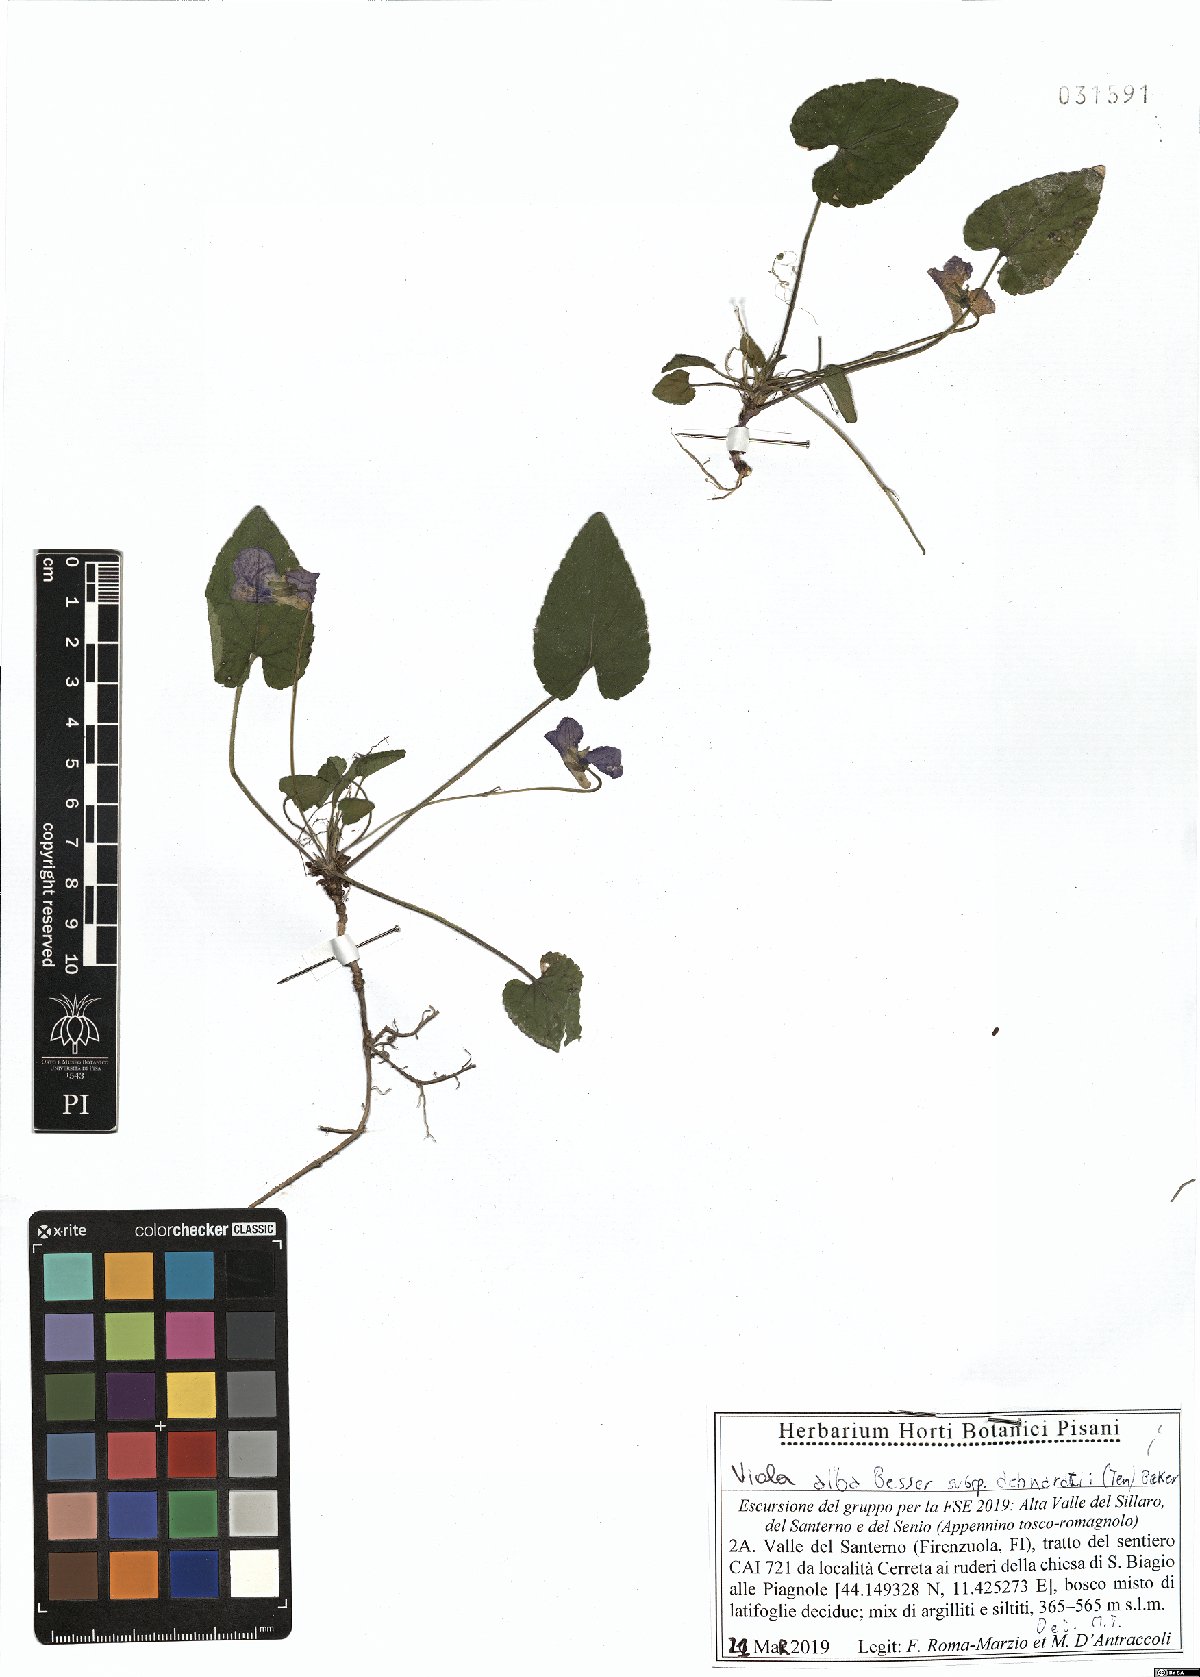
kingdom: Plantae
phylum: Tracheophyta
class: Magnoliopsida
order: Malpighiales
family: Violaceae
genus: Viola
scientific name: Viola alba
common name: White violet
